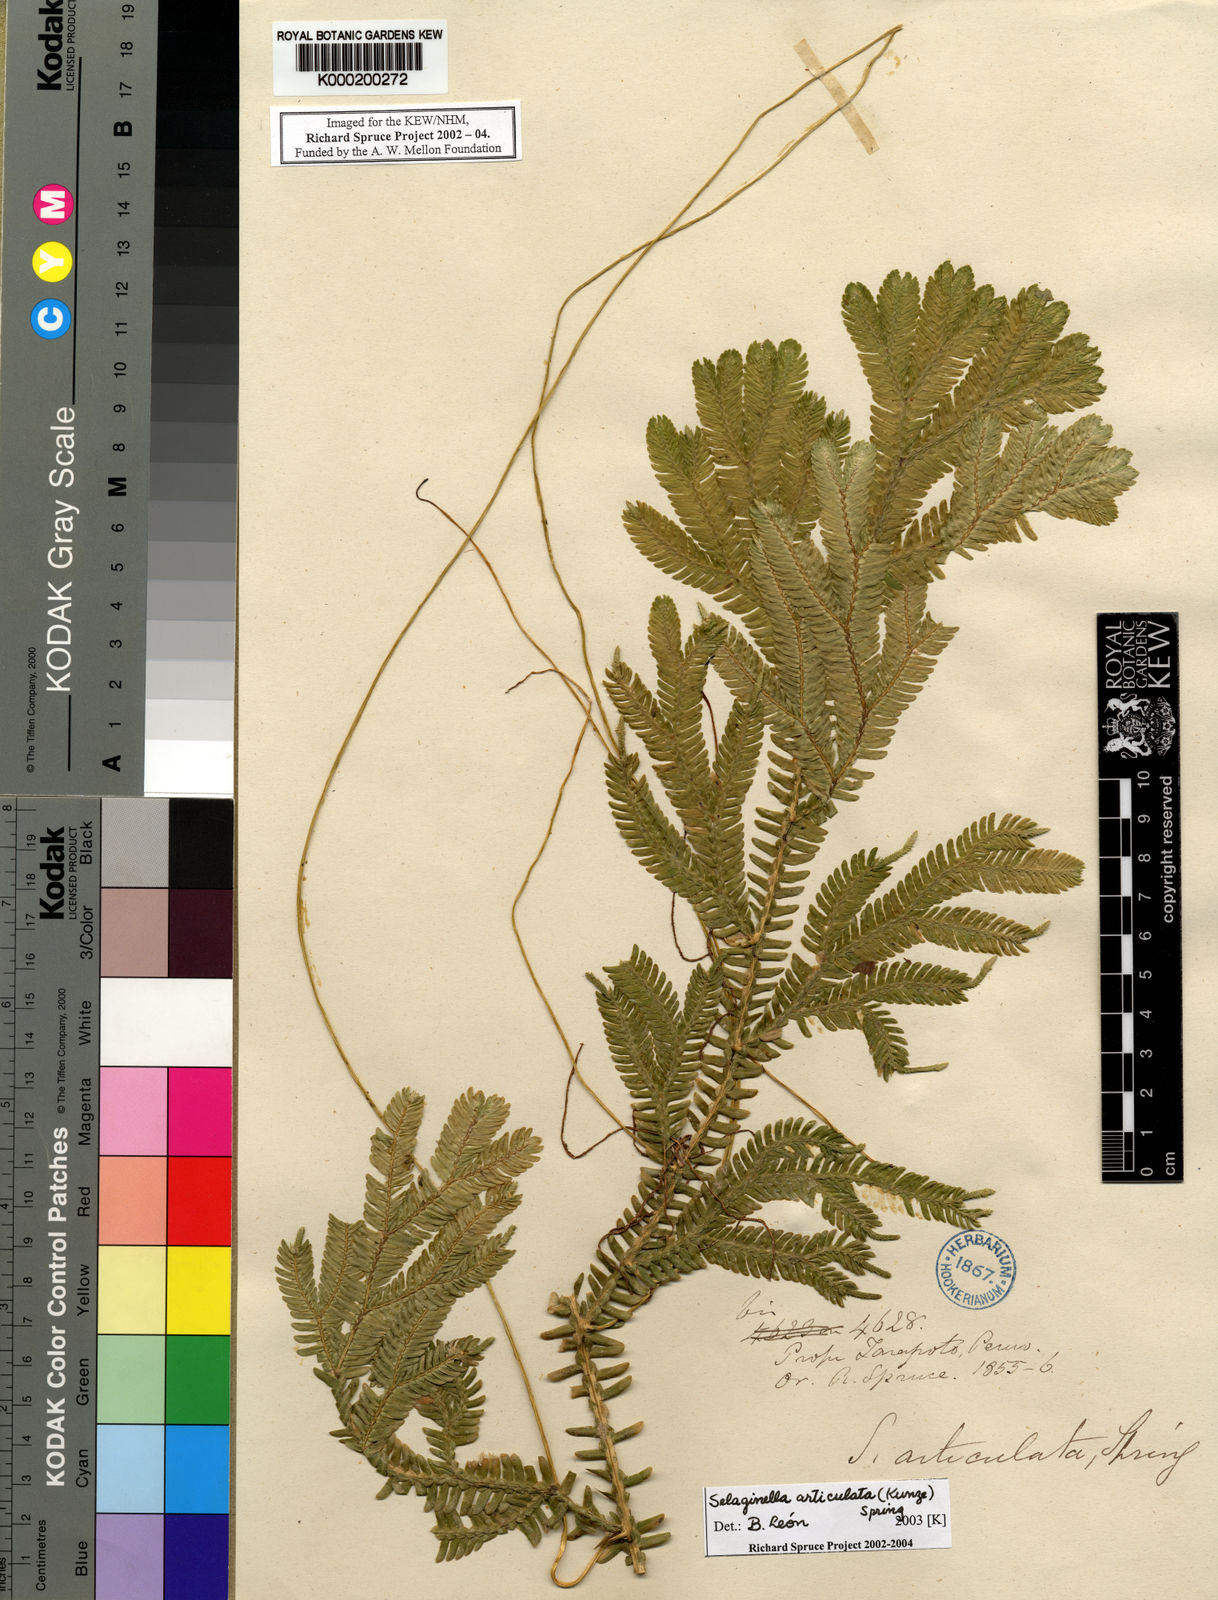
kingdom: Plantae
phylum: Tracheophyta
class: Lycopodiopsida
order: Selaginellales
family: Selaginellaceae
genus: Selaginella
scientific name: Selaginella articulata
